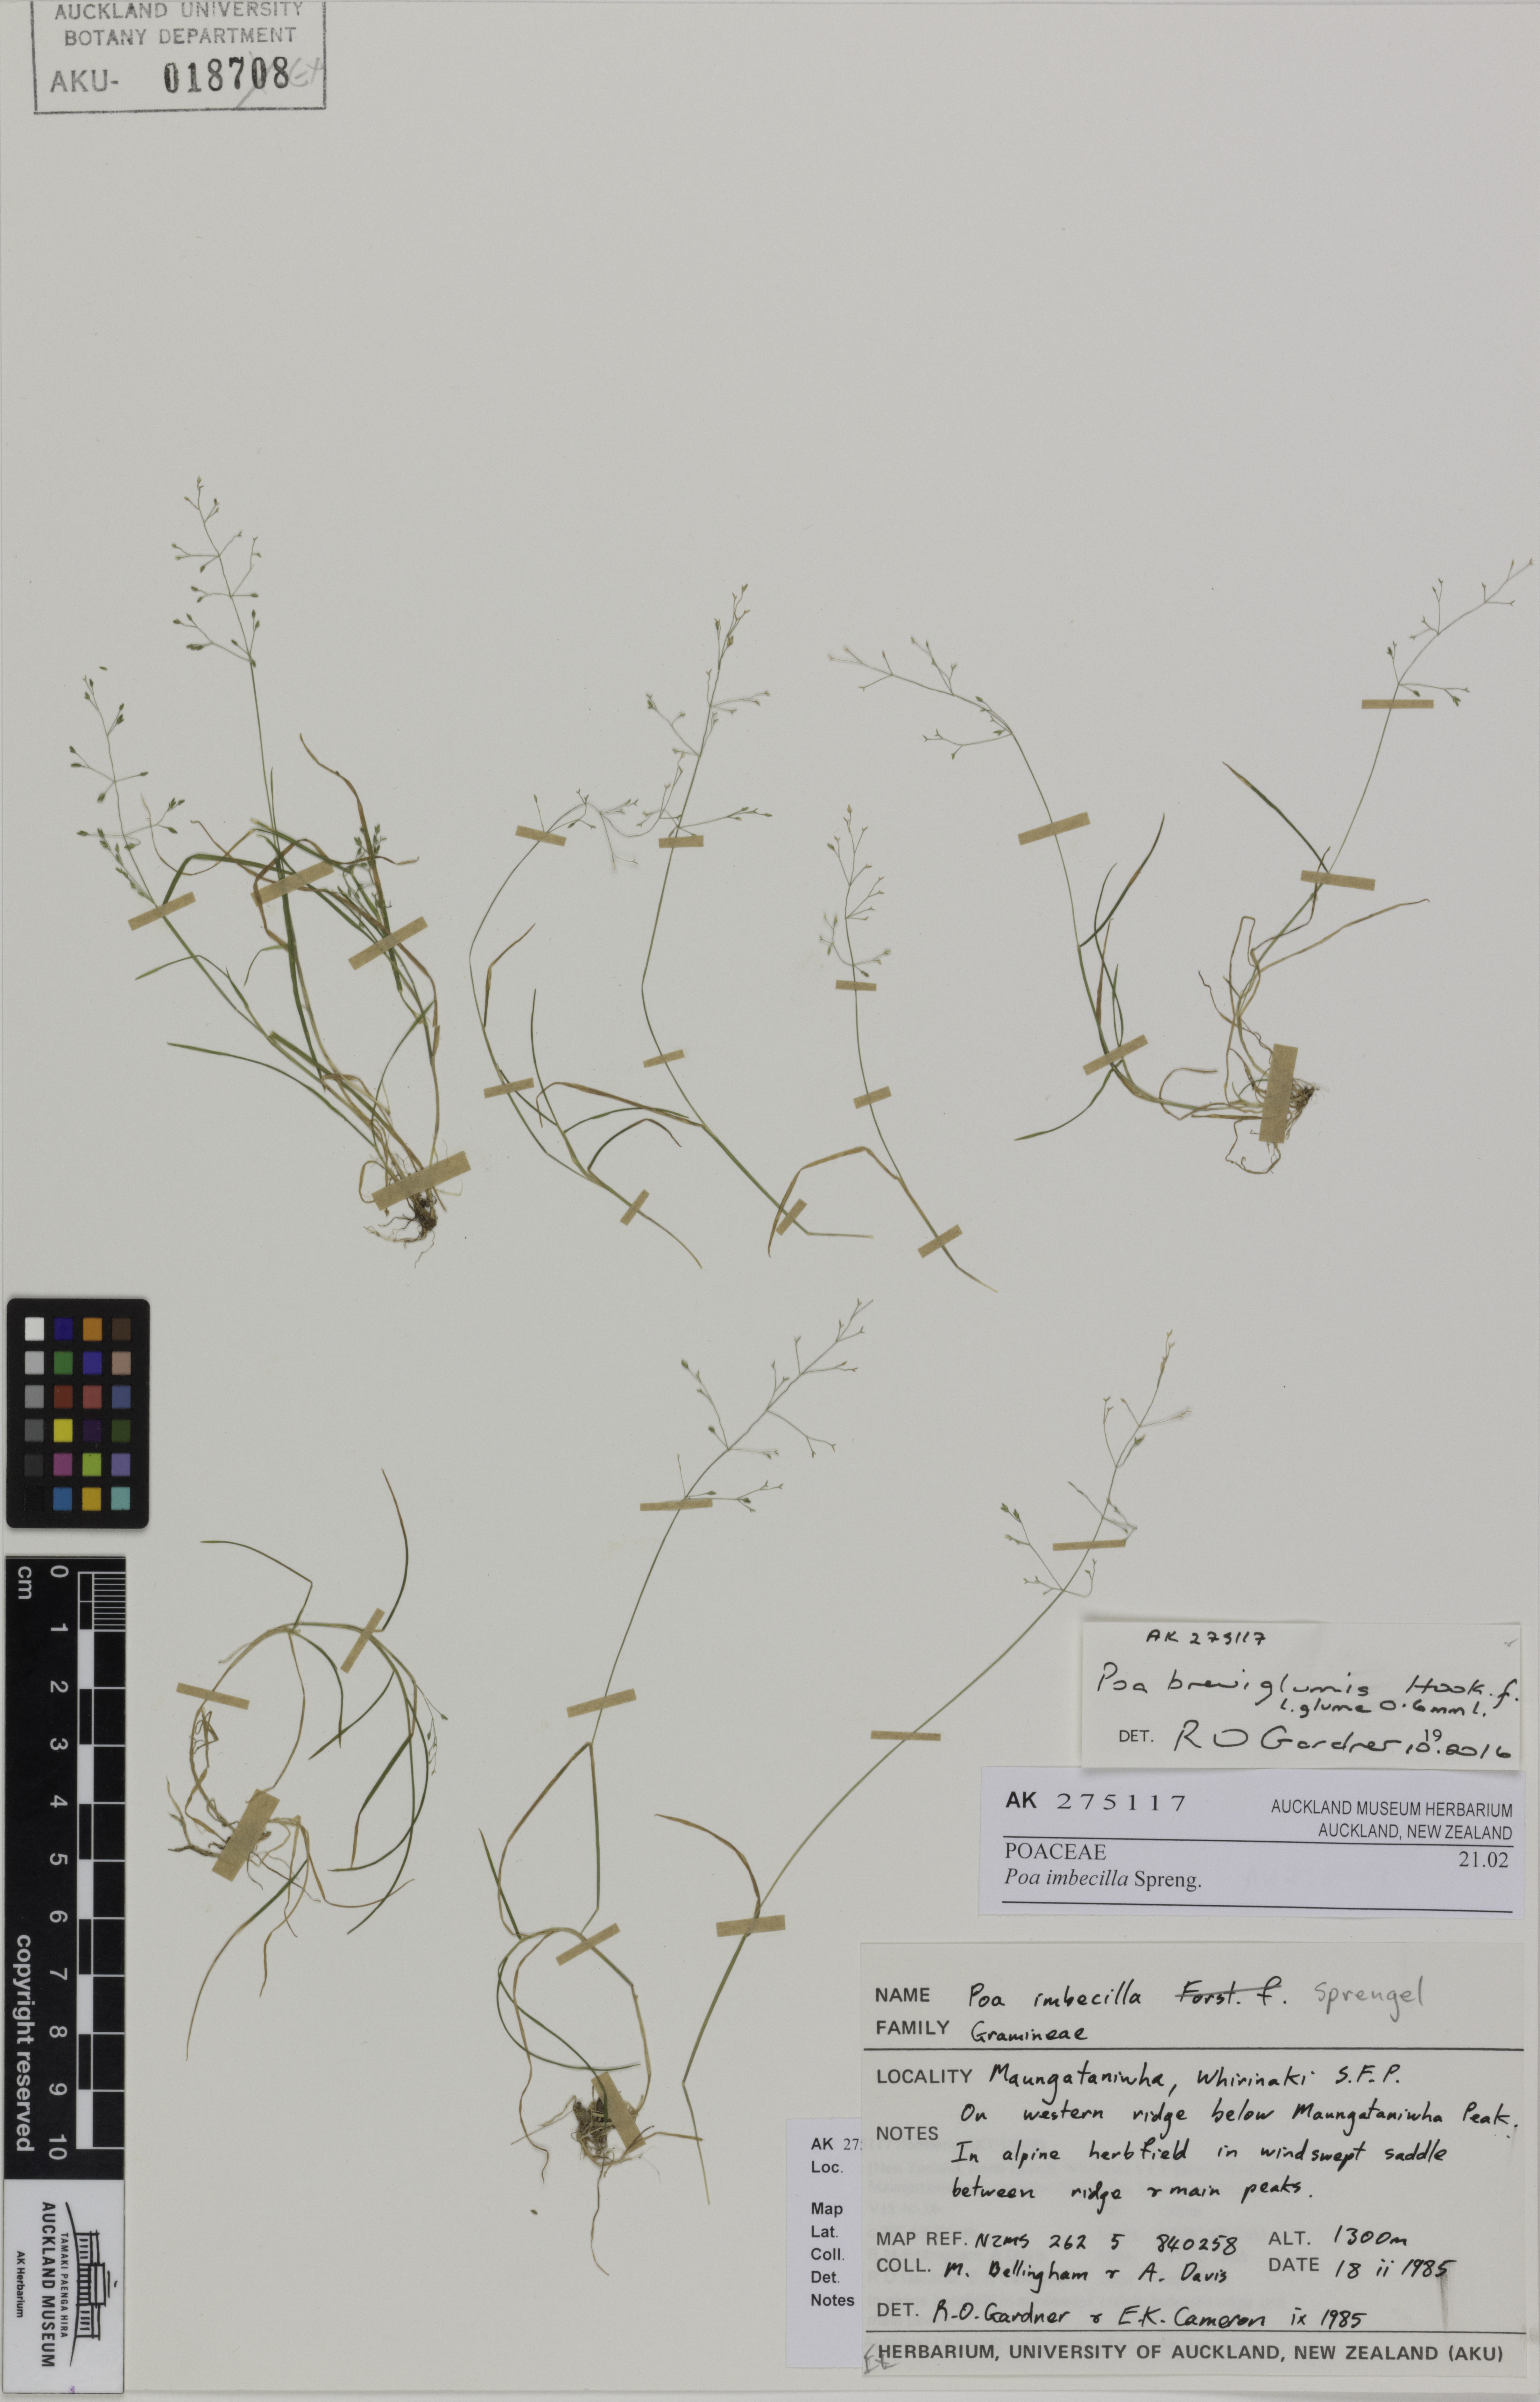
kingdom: Plantae
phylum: Tracheophyta
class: Liliopsida
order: Poales
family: Poaceae
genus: Poa
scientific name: Poa breviglumis
